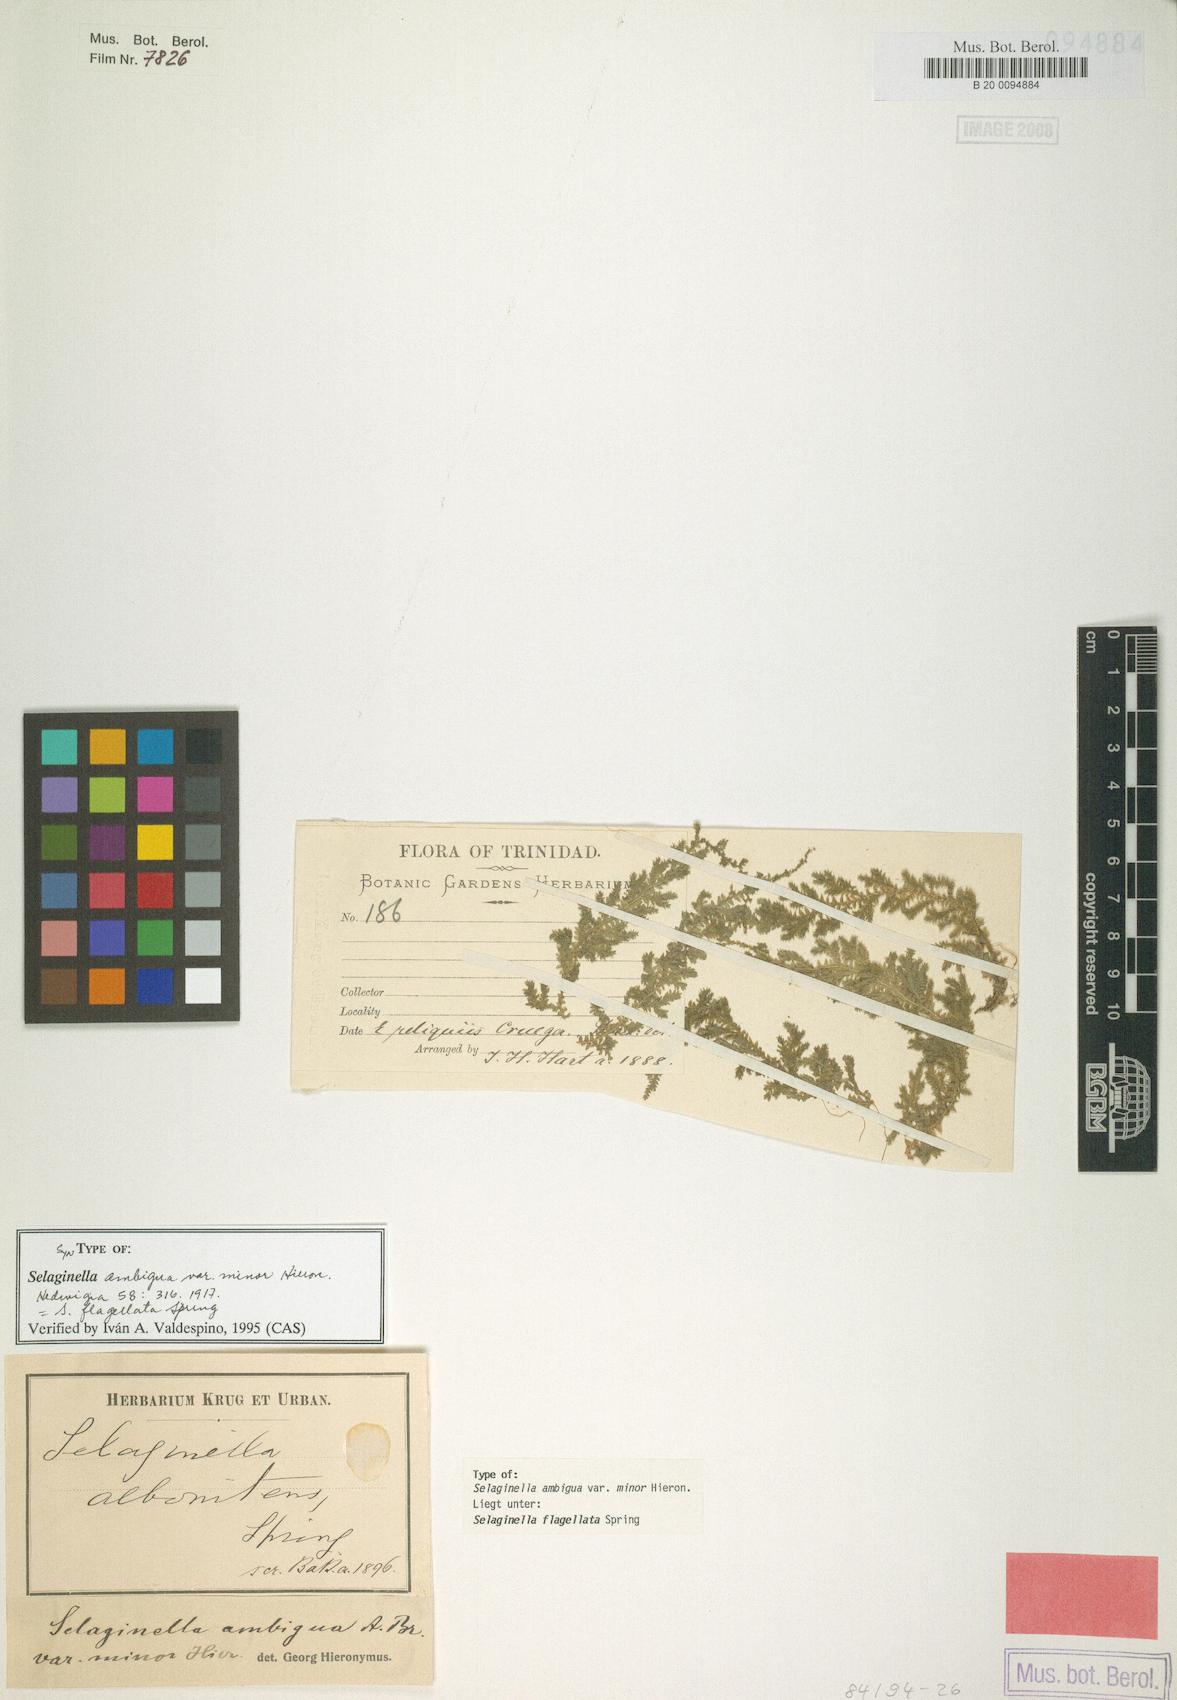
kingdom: Plantae
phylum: Tracheophyta
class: Lycopodiopsida
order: Selaginellales
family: Selaginellaceae
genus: Selaginella
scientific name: Selaginella flagellata
